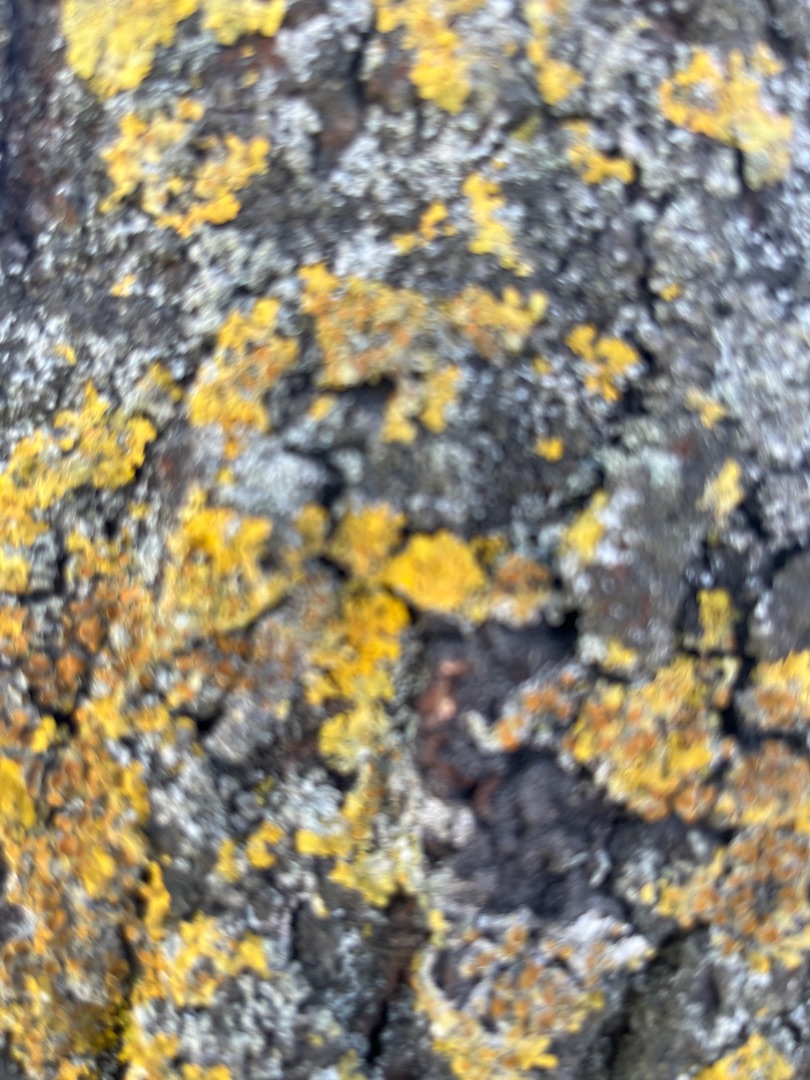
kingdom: Fungi
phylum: Ascomycota
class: Lecanoromycetes
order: Teloschistales
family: Teloschistaceae
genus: Xanthoria
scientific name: Xanthoria parietina
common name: Almindelig væggelav
